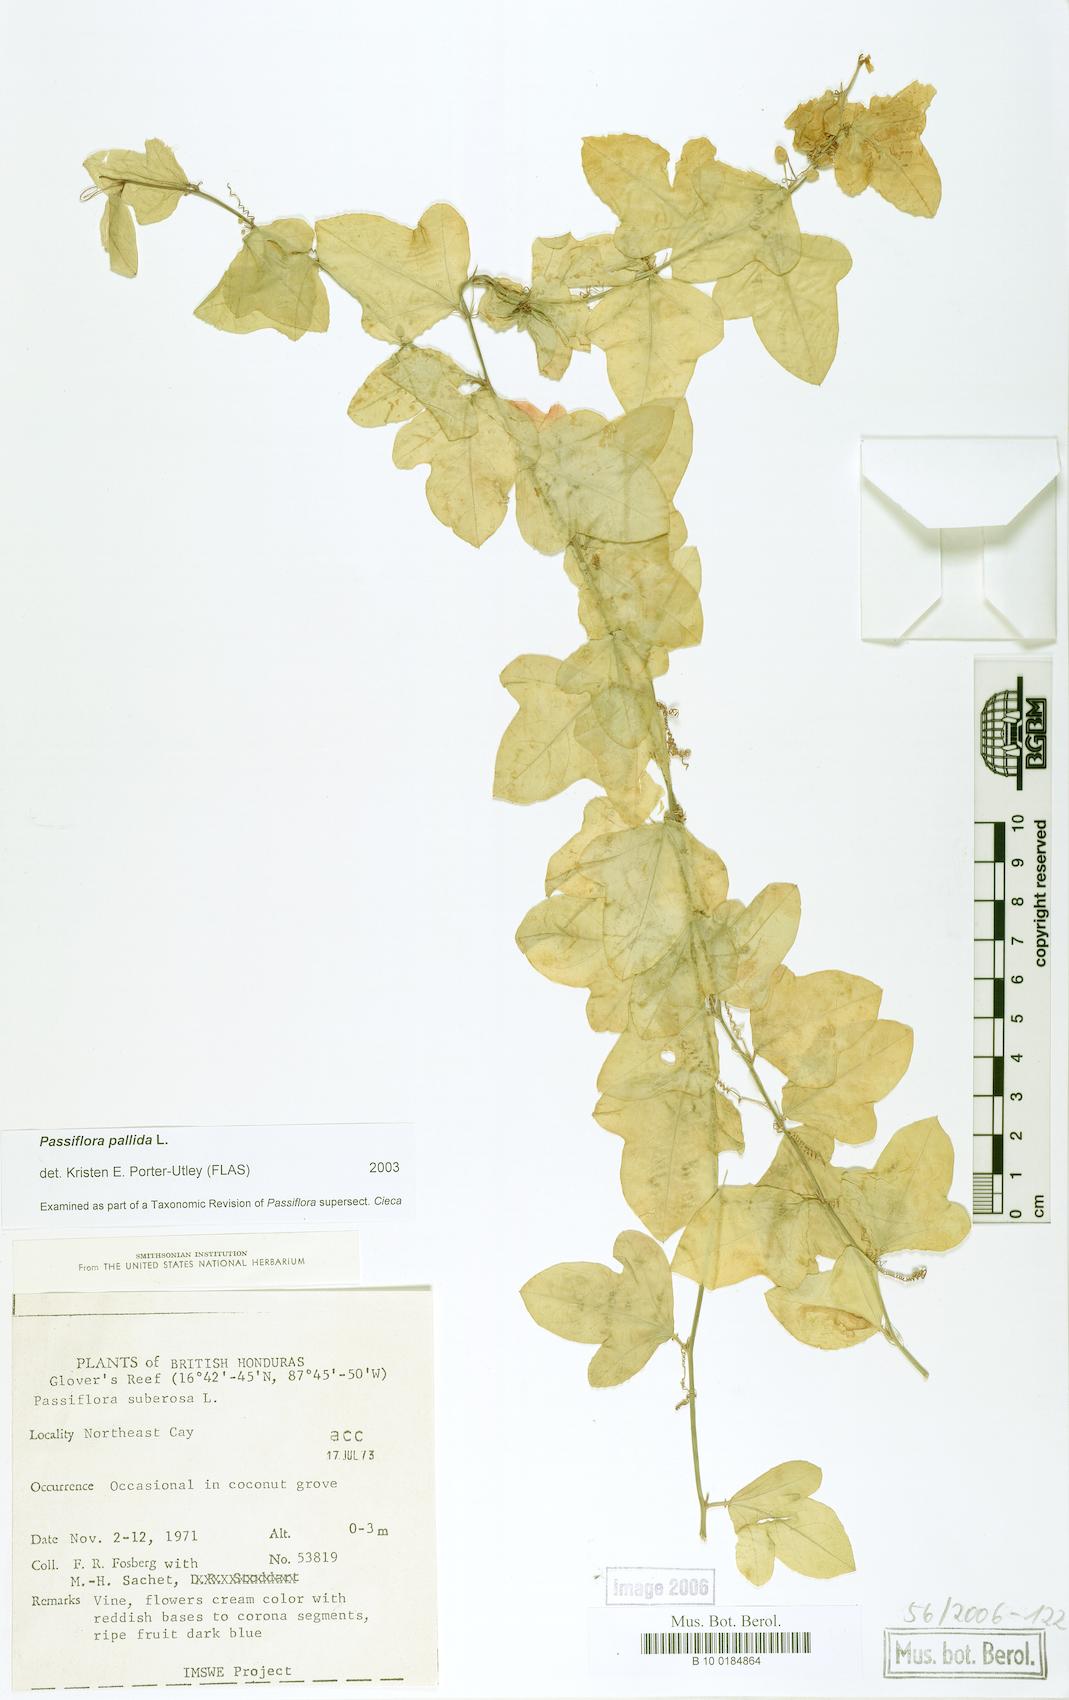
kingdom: Plantae
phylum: Tracheophyta
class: Magnoliopsida
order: Malpighiales
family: Passifloraceae
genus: Passiflora
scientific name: Passiflora pallida
